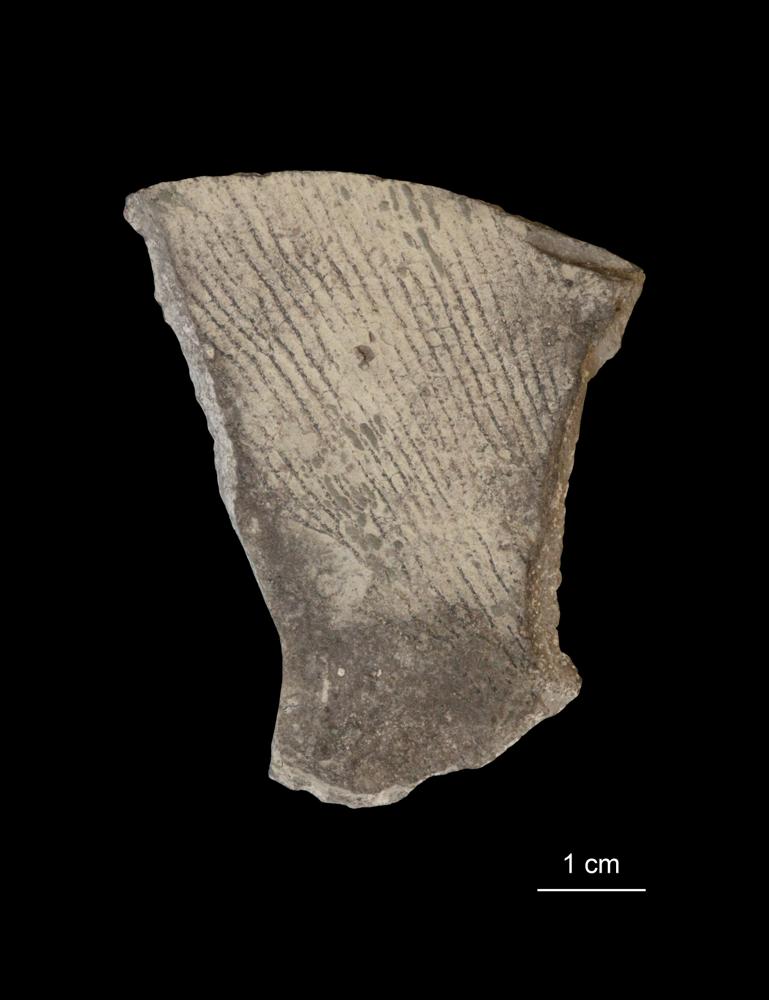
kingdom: Animalia
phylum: Hemichordata
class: Pterobranchia
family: Anisograptidae
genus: Rhabdinopora
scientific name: Rhabdinopora Gorgonia flabelliformis
